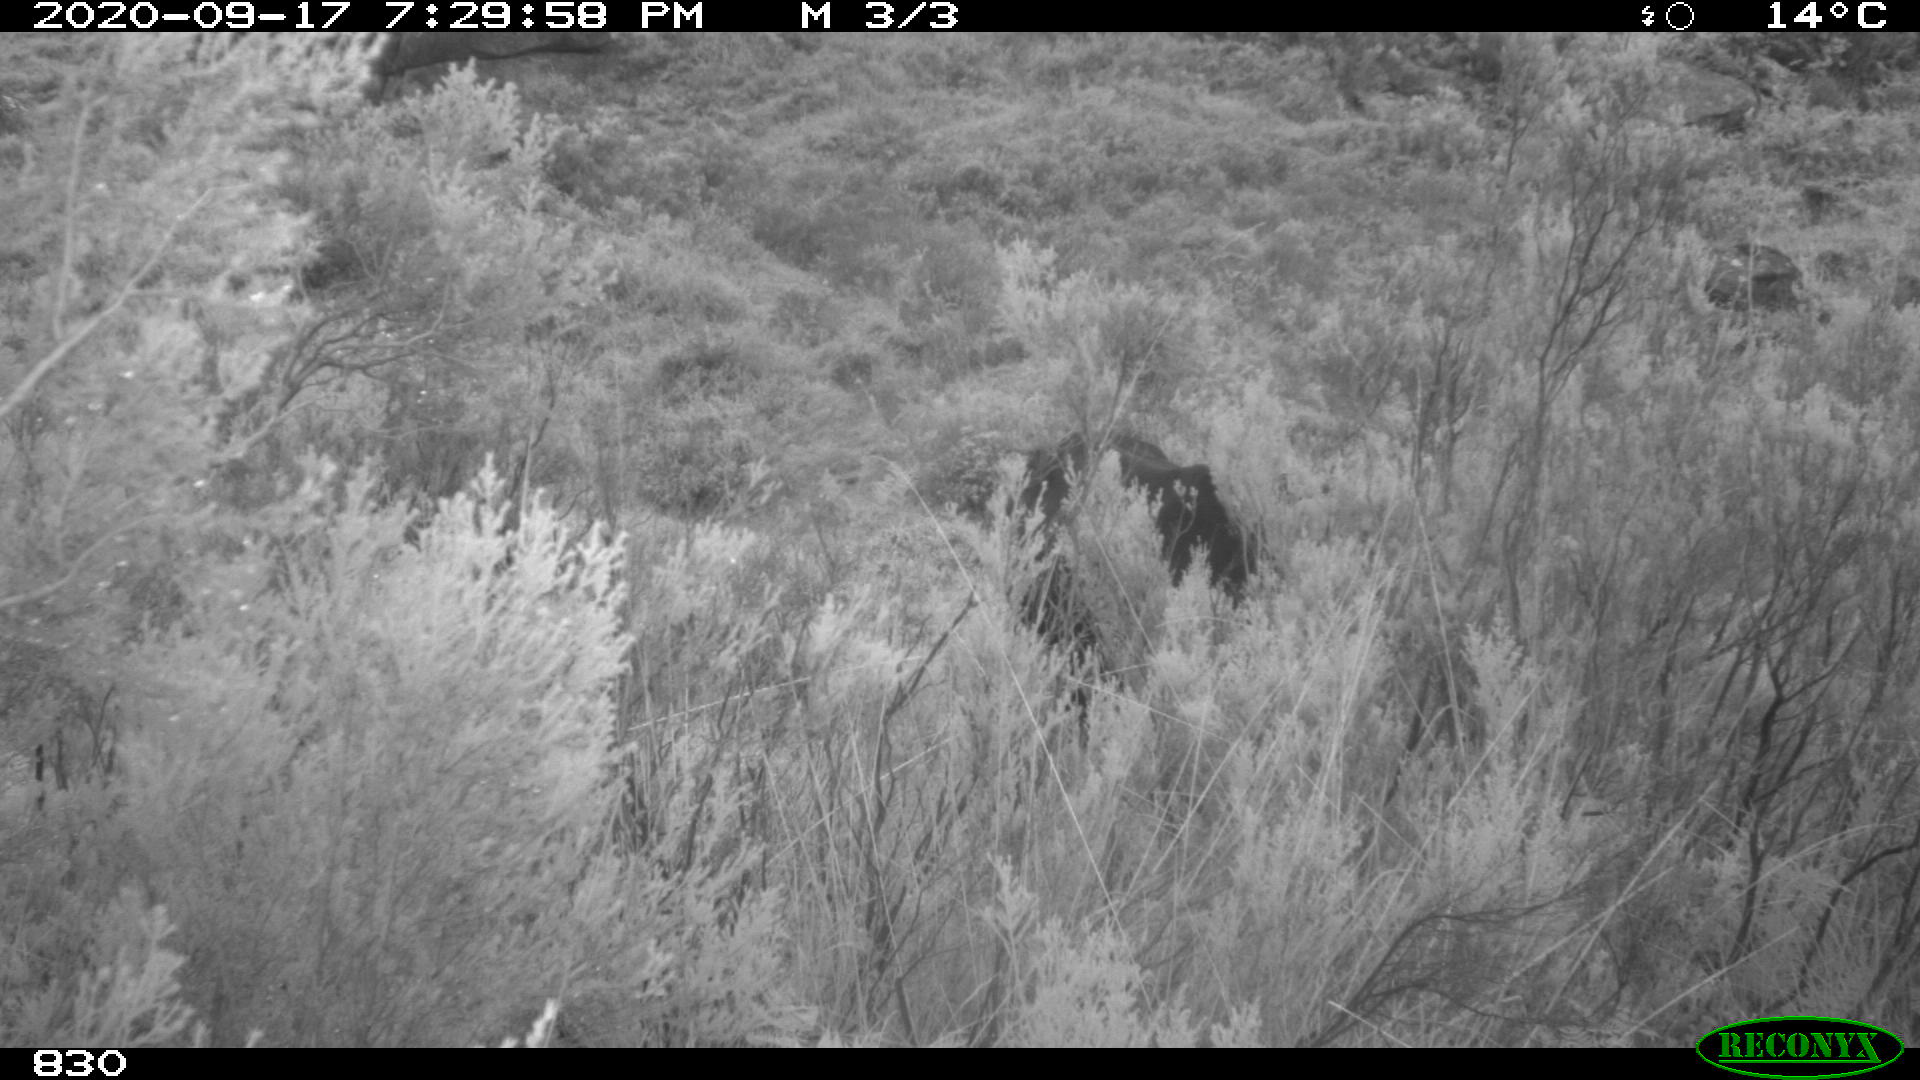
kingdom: Animalia
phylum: Chordata
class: Mammalia
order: Perissodactyla
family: Equidae
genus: Equus
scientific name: Equus caballus
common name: Horse
